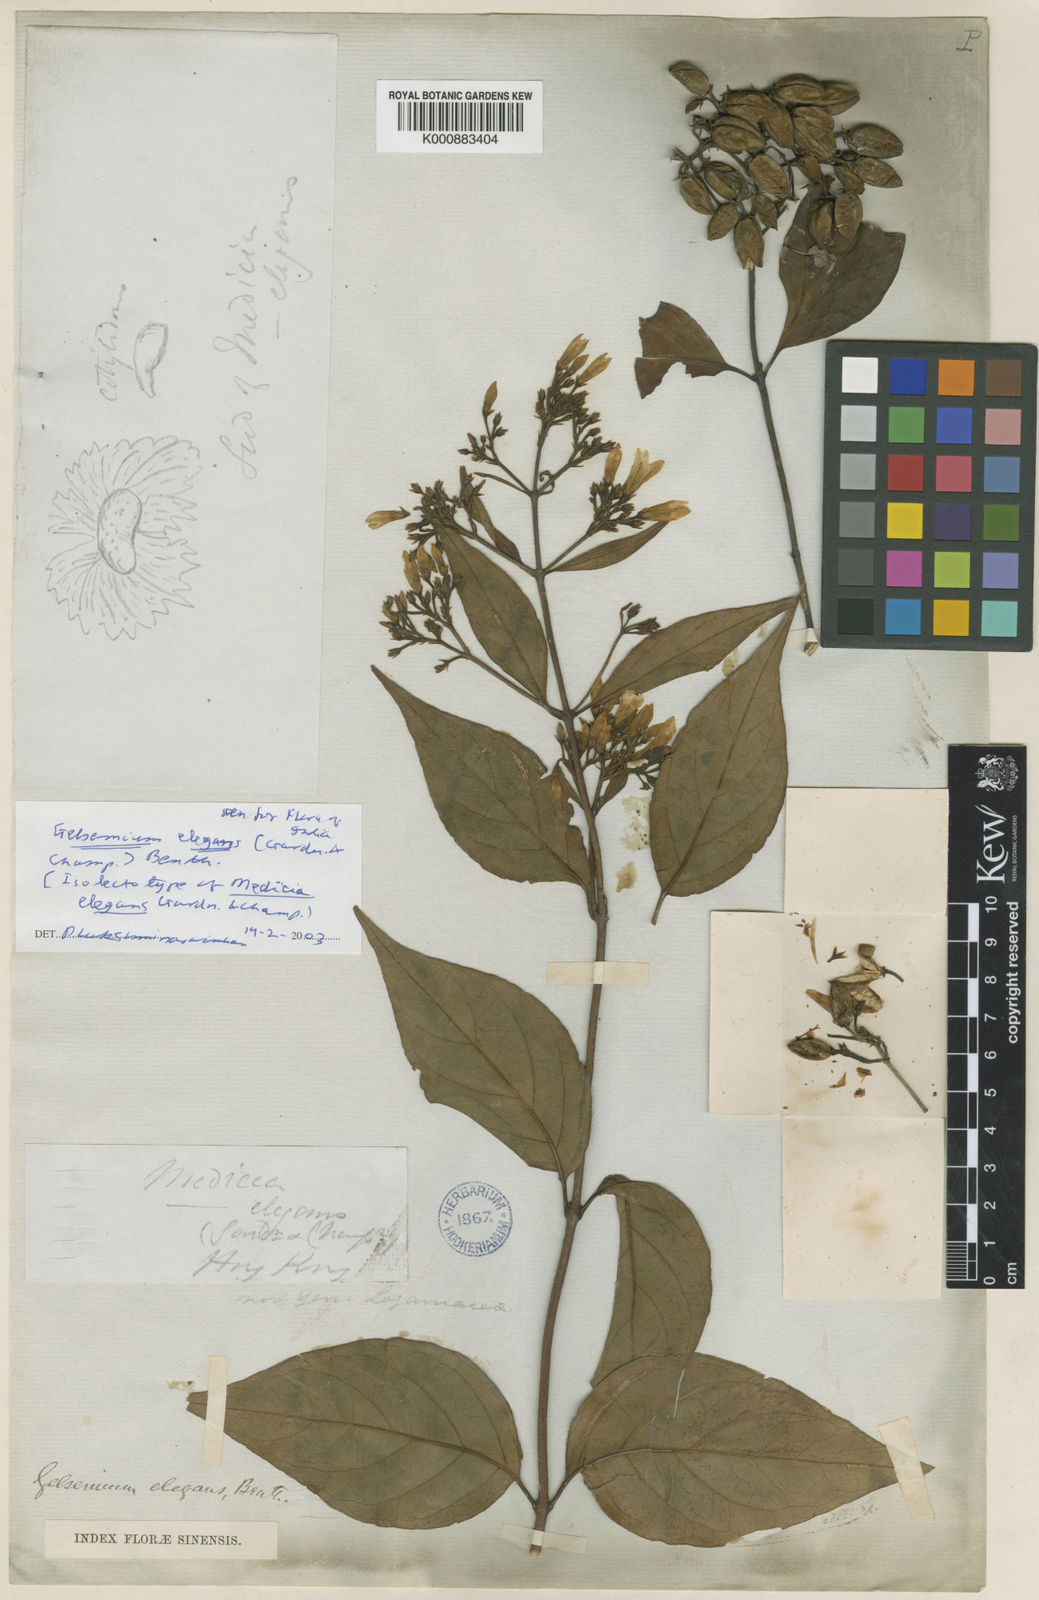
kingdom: Plantae
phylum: Tracheophyta
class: Magnoliopsida
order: Gentianales
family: Gelsemiaceae
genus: Gelsemium
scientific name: Gelsemium elegans
